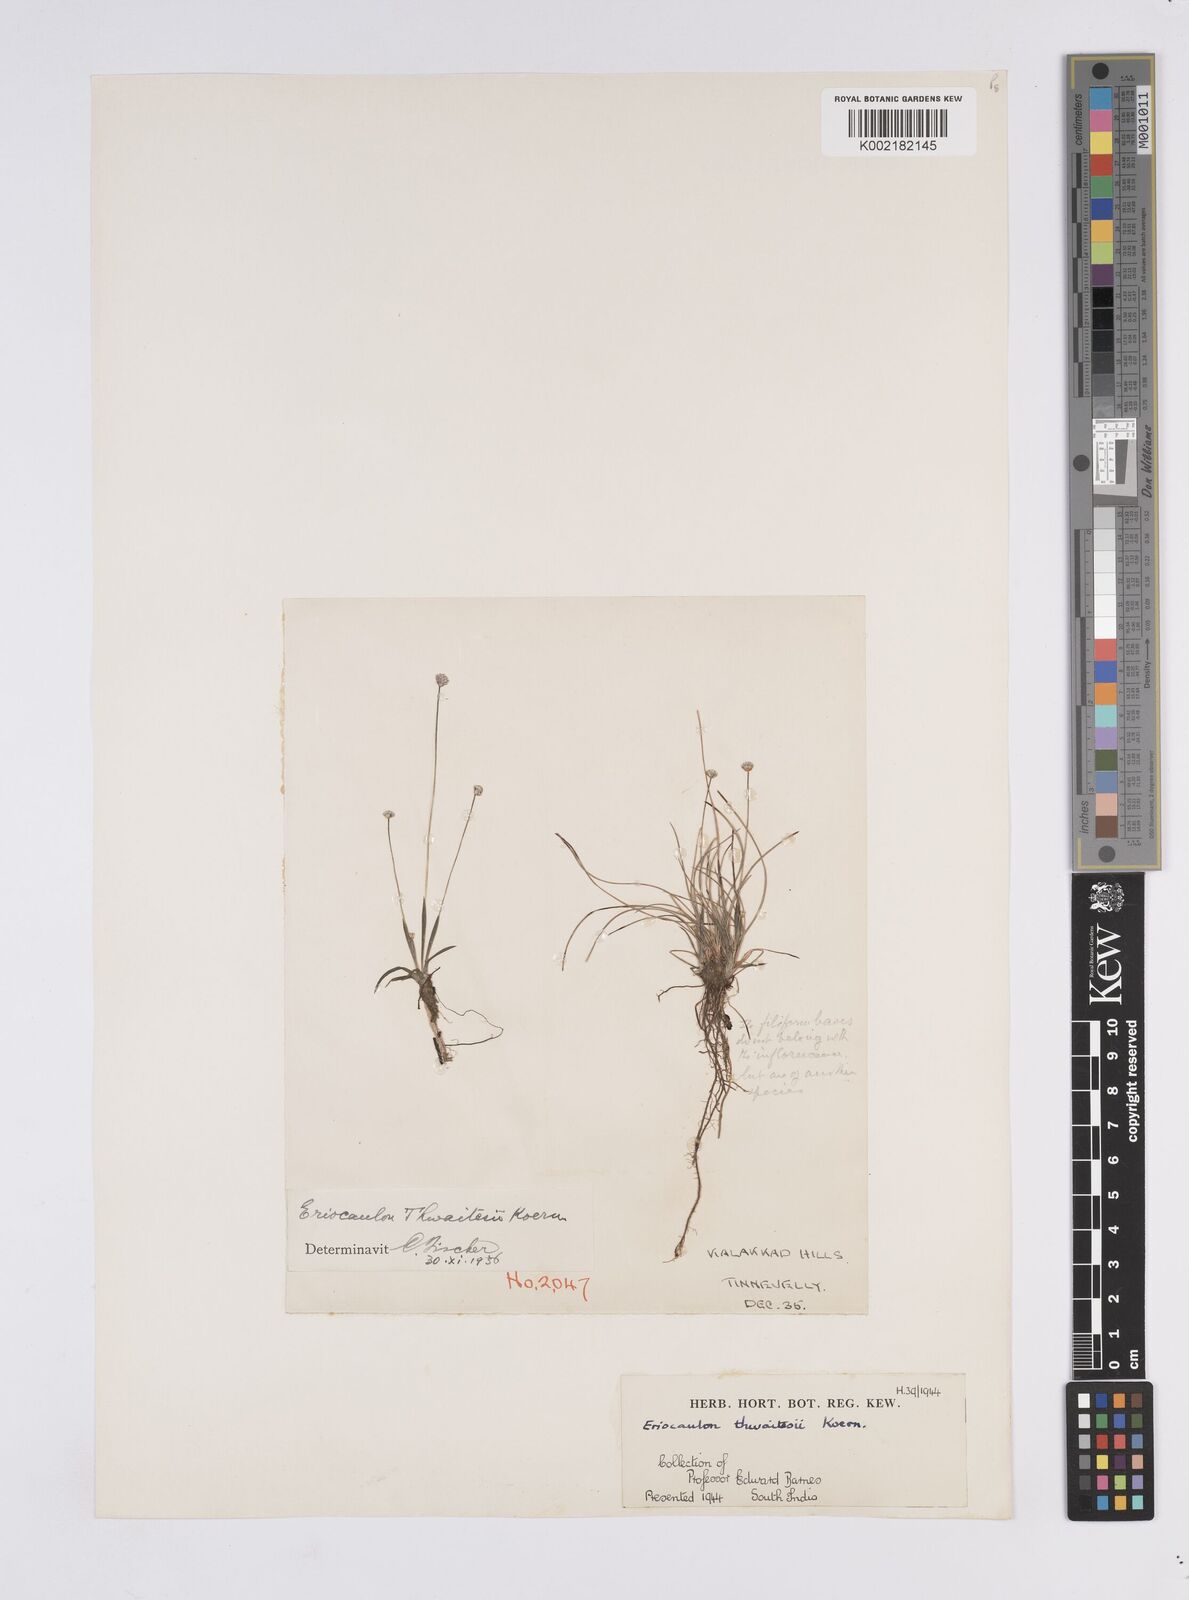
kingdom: Plantae
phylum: Tracheophyta
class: Liliopsida
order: Poales
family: Eriocaulaceae
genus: Eriocaulon
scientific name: Eriocaulon
